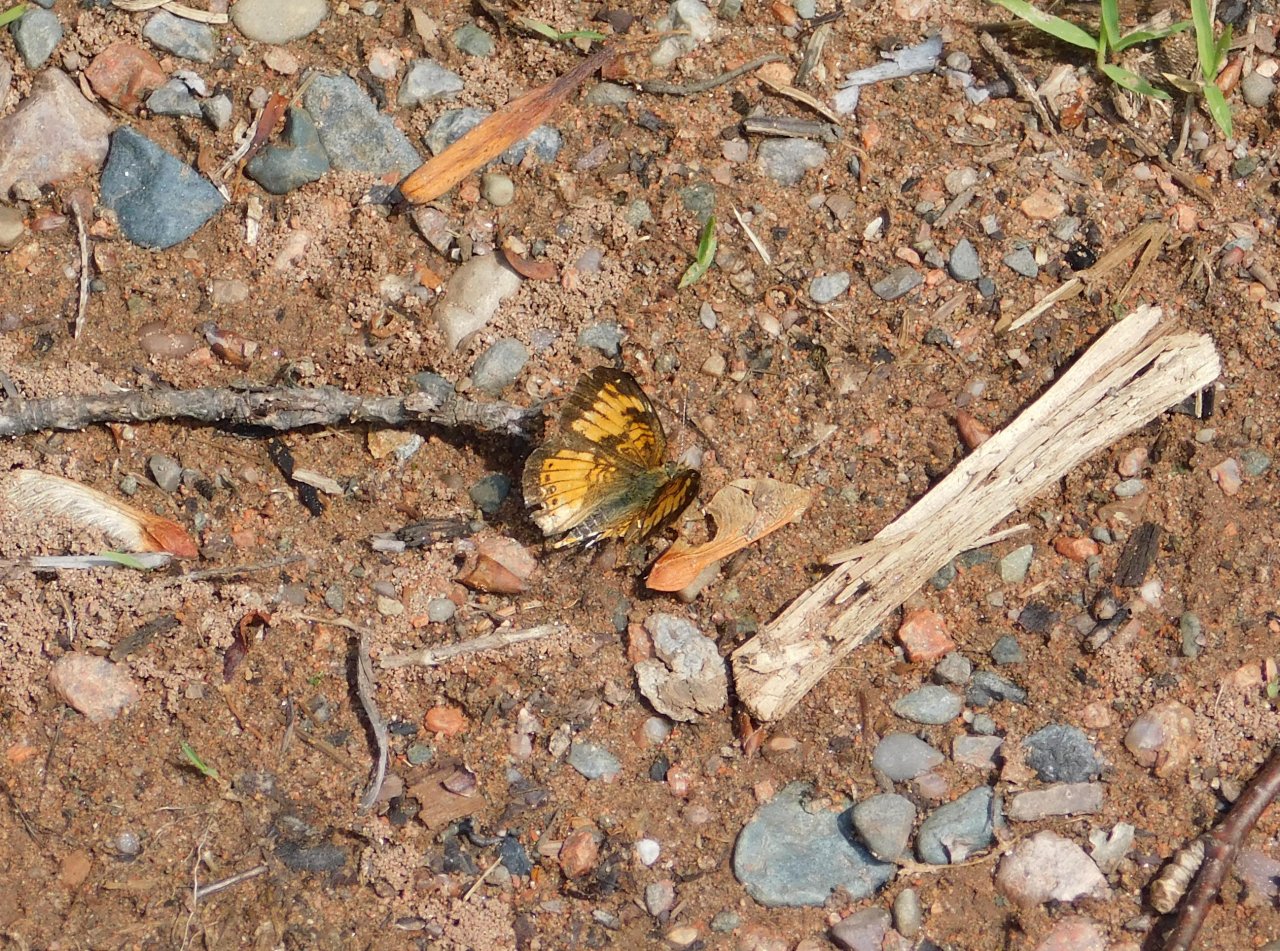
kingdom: Animalia
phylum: Arthropoda
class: Insecta
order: Lepidoptera
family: Nymphalidae
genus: Chlosyne
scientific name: Chlosyne harrisii
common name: Harris's Checkerspot
